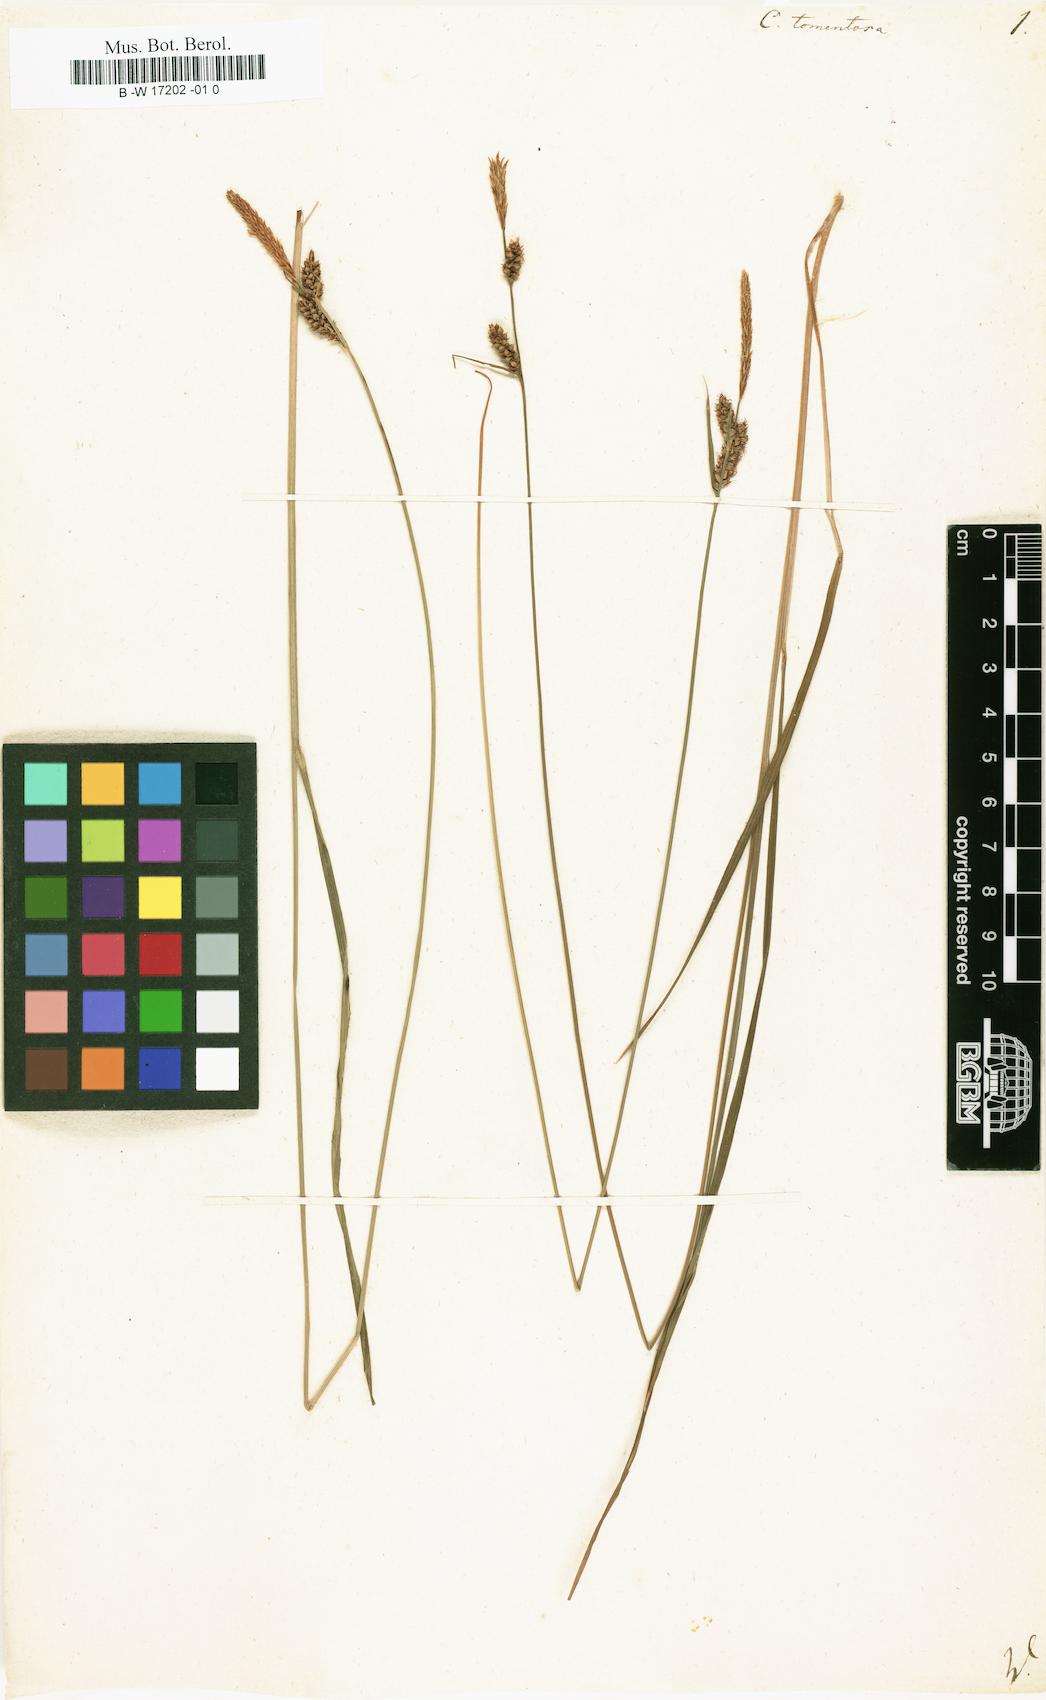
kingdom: Plantae
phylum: Tracheophyta
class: Liliopsida
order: Poales
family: Cyperaceae
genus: Carex
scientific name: Carex tomentosa
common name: Downy-fruited sedge
